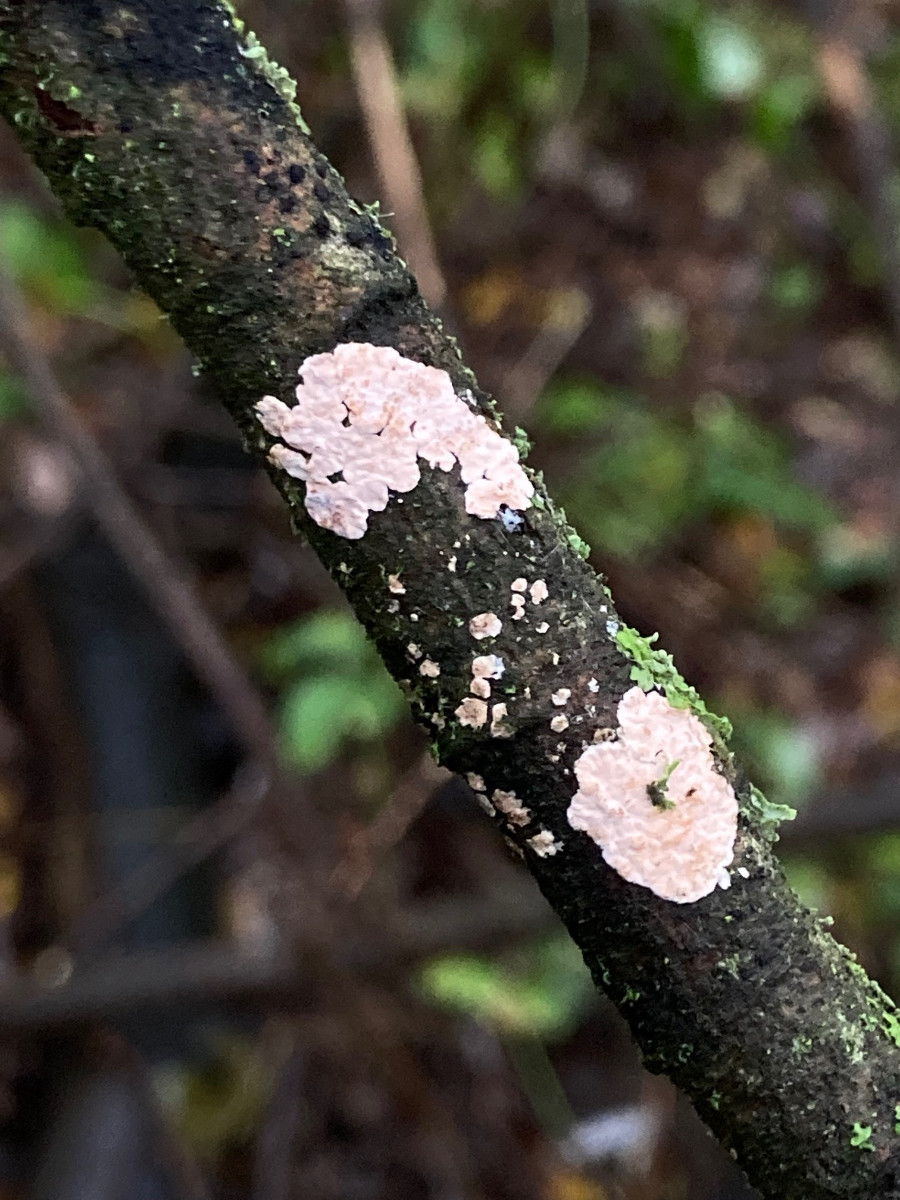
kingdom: Fungi
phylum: Basidiomycota
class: Agaricomycetes
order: Corticiales
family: Corticiaceae
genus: Corticium
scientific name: Corticium roseum
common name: rosa barkskind
